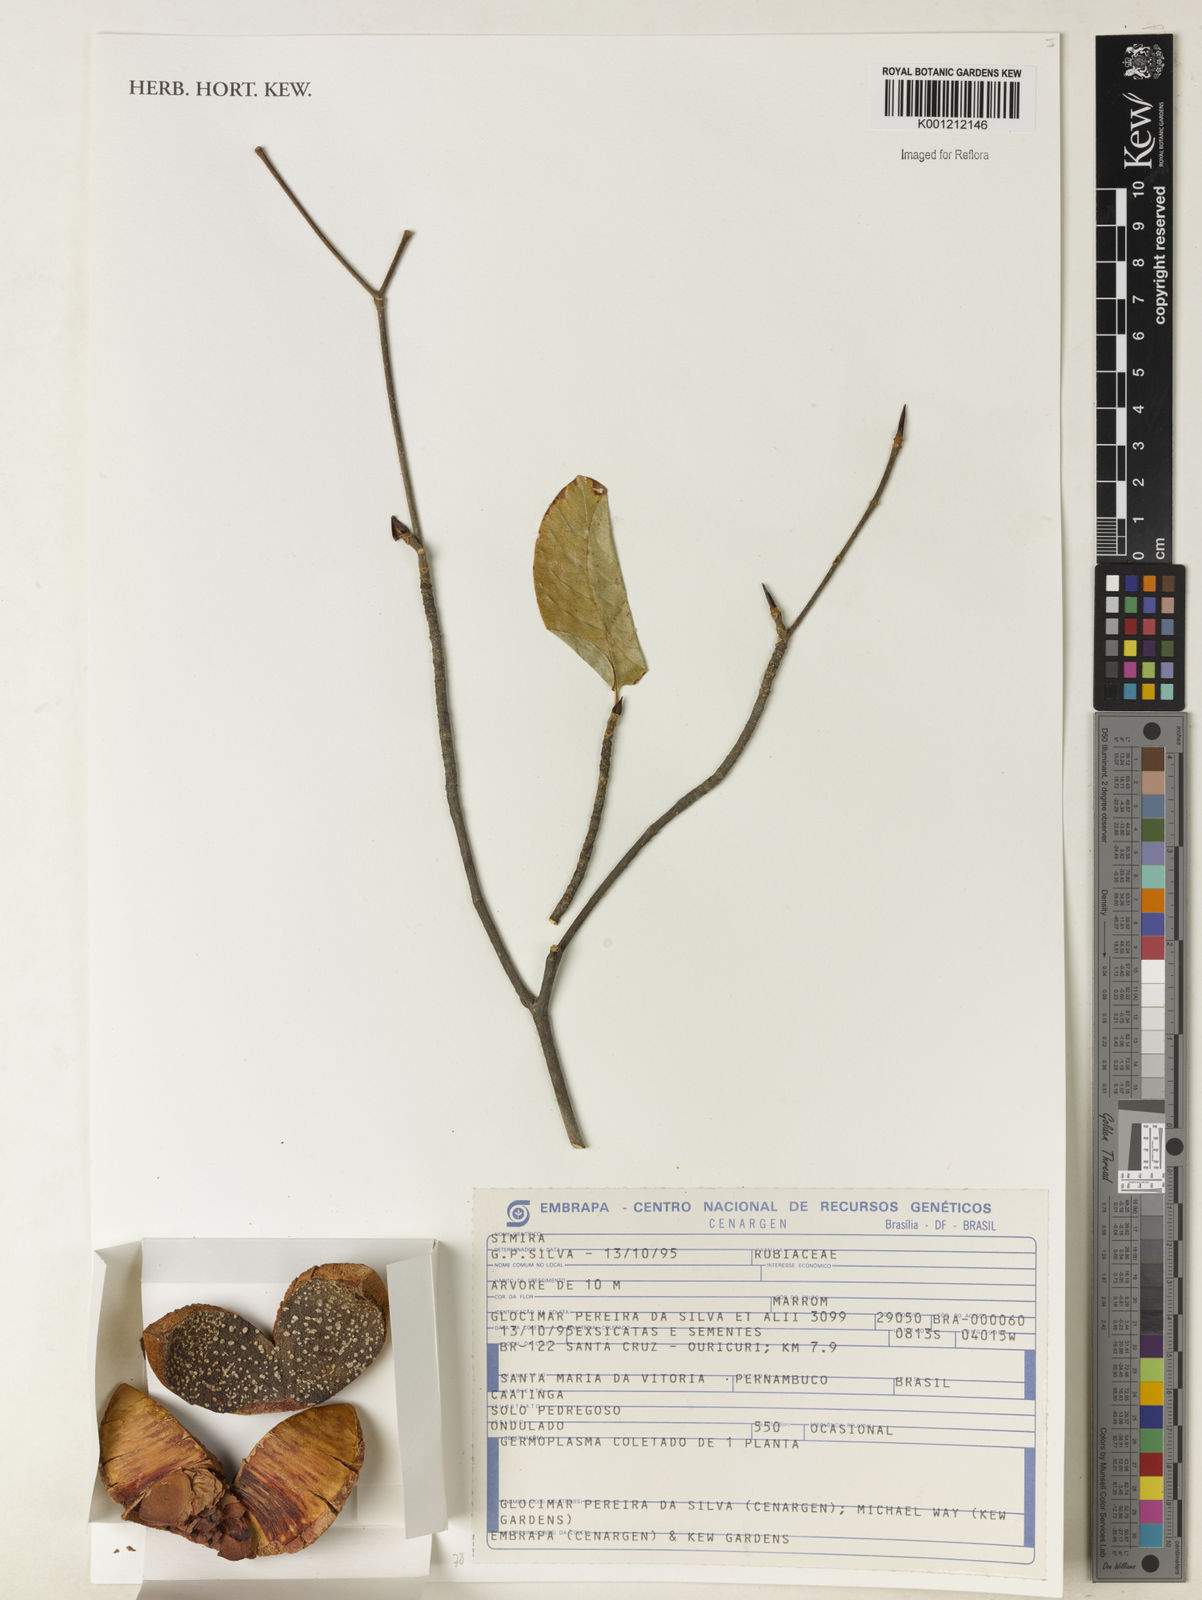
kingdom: Plantae
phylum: Tracheophyta
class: Magnoliopsida
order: Gentianales
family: Rubiaceae
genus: Simira
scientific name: Simira
